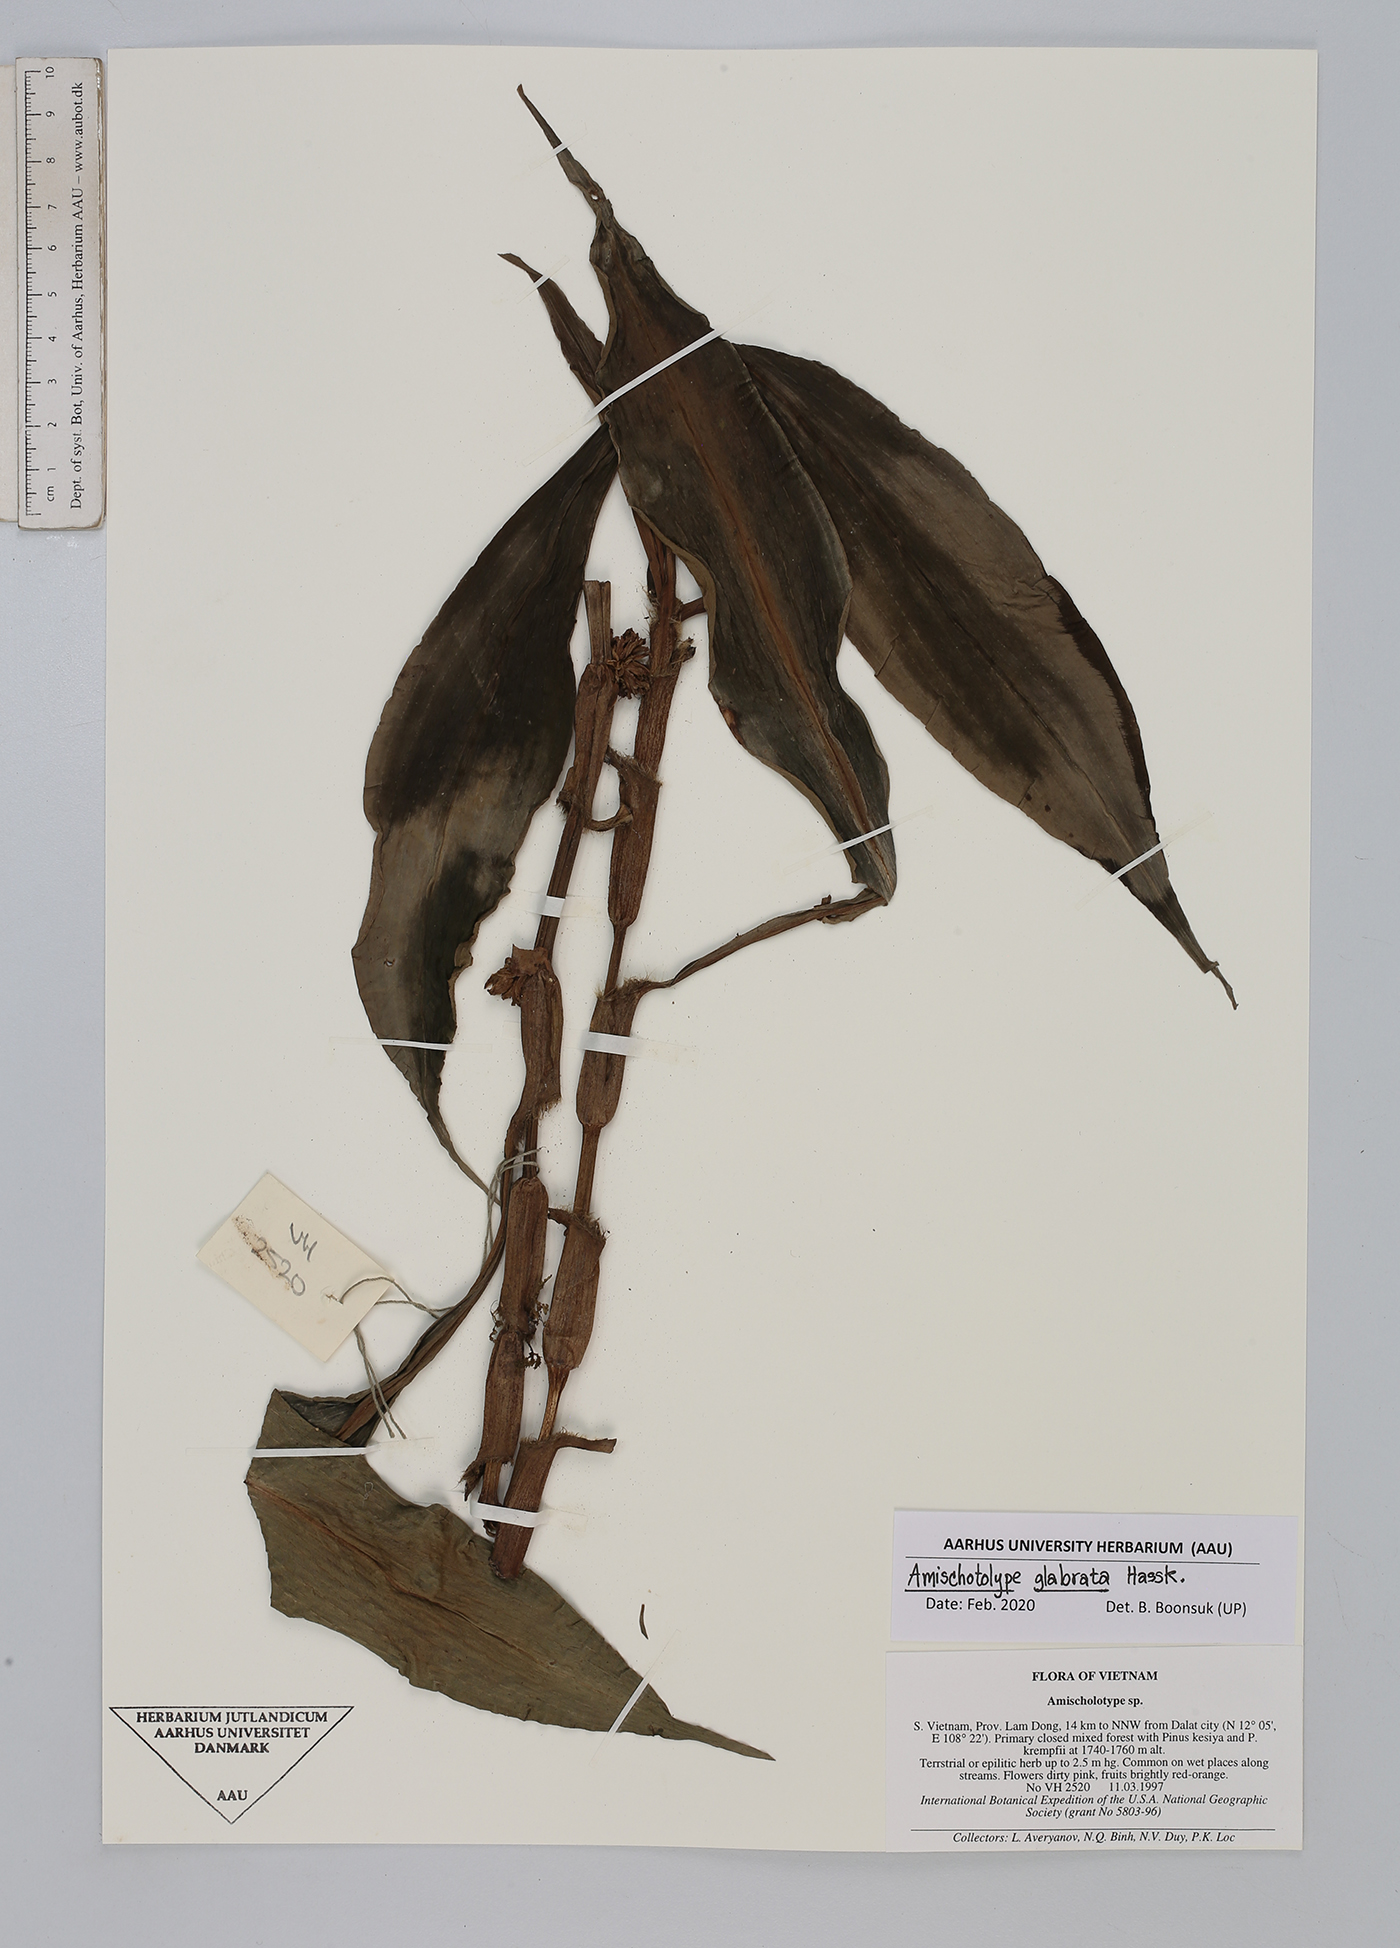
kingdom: Plantae
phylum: Tracheophyta
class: Liliopsida
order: Commelinales
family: Commelinaceae
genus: Amischotolype
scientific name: Amischotolype glabrata
